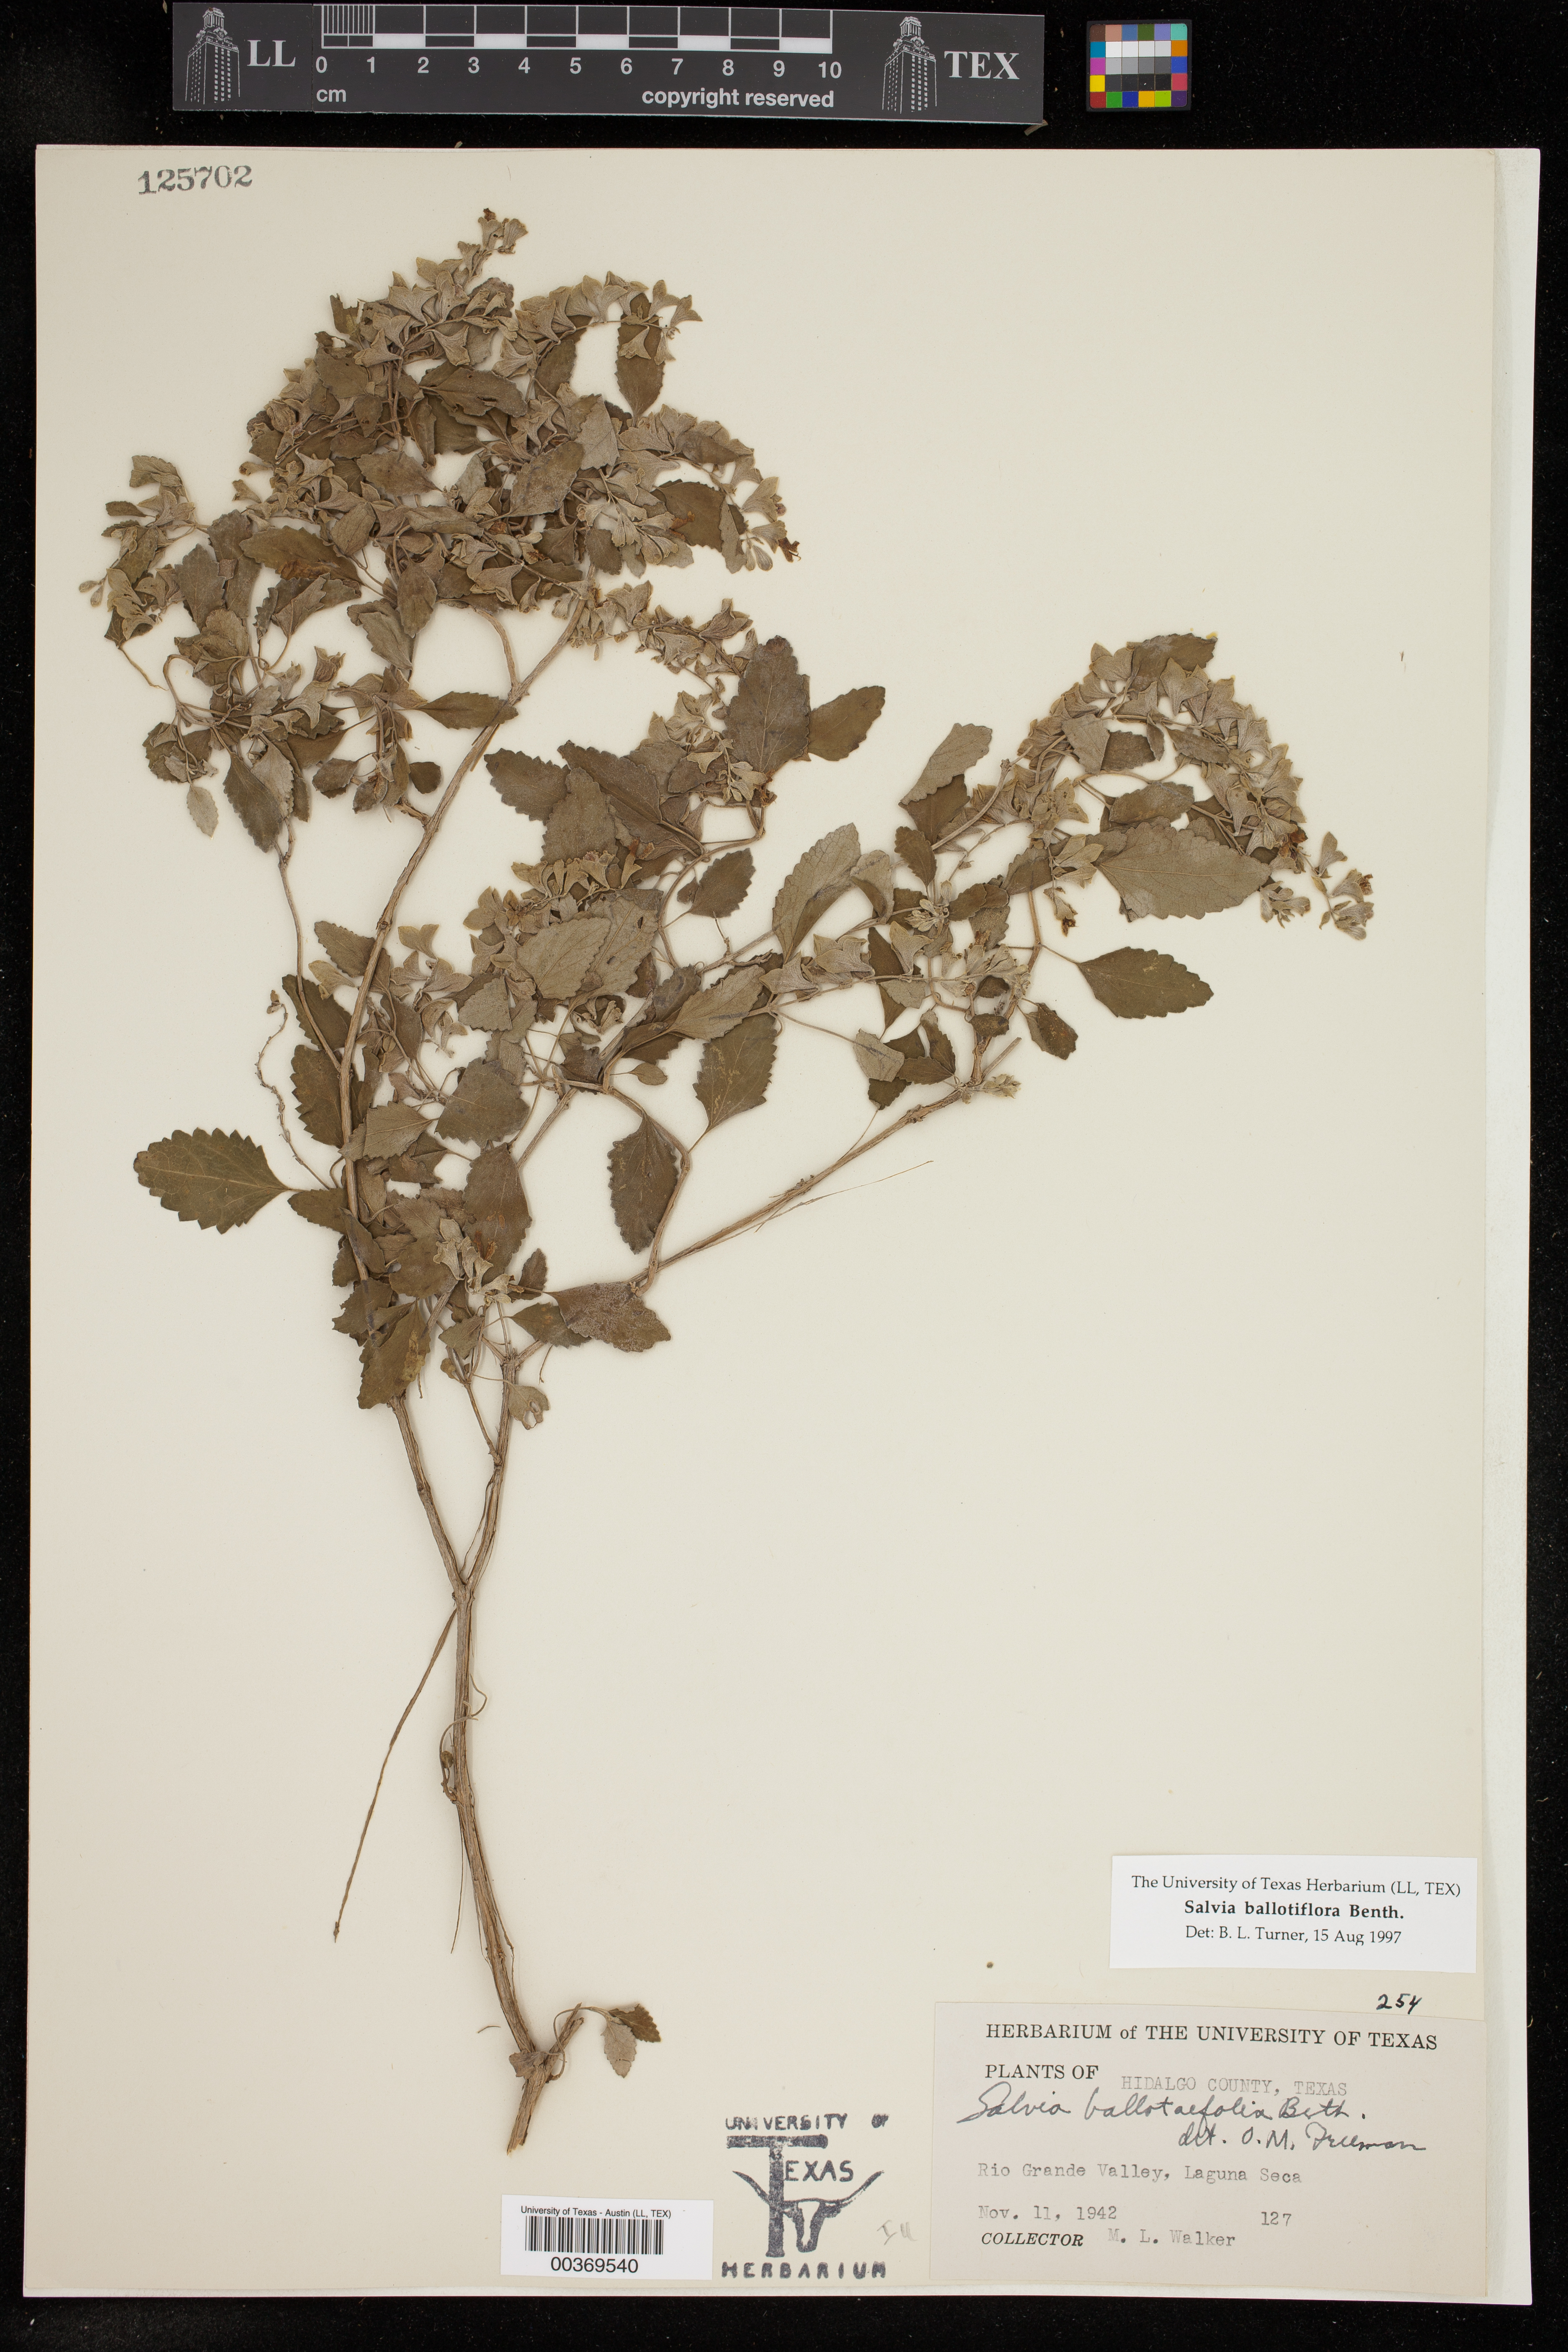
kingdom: Plantae
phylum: Tracheophyta
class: Magnoliopsida
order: Lamiales
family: Lamiaceae
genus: Salvia
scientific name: Salvia ballotiflora
